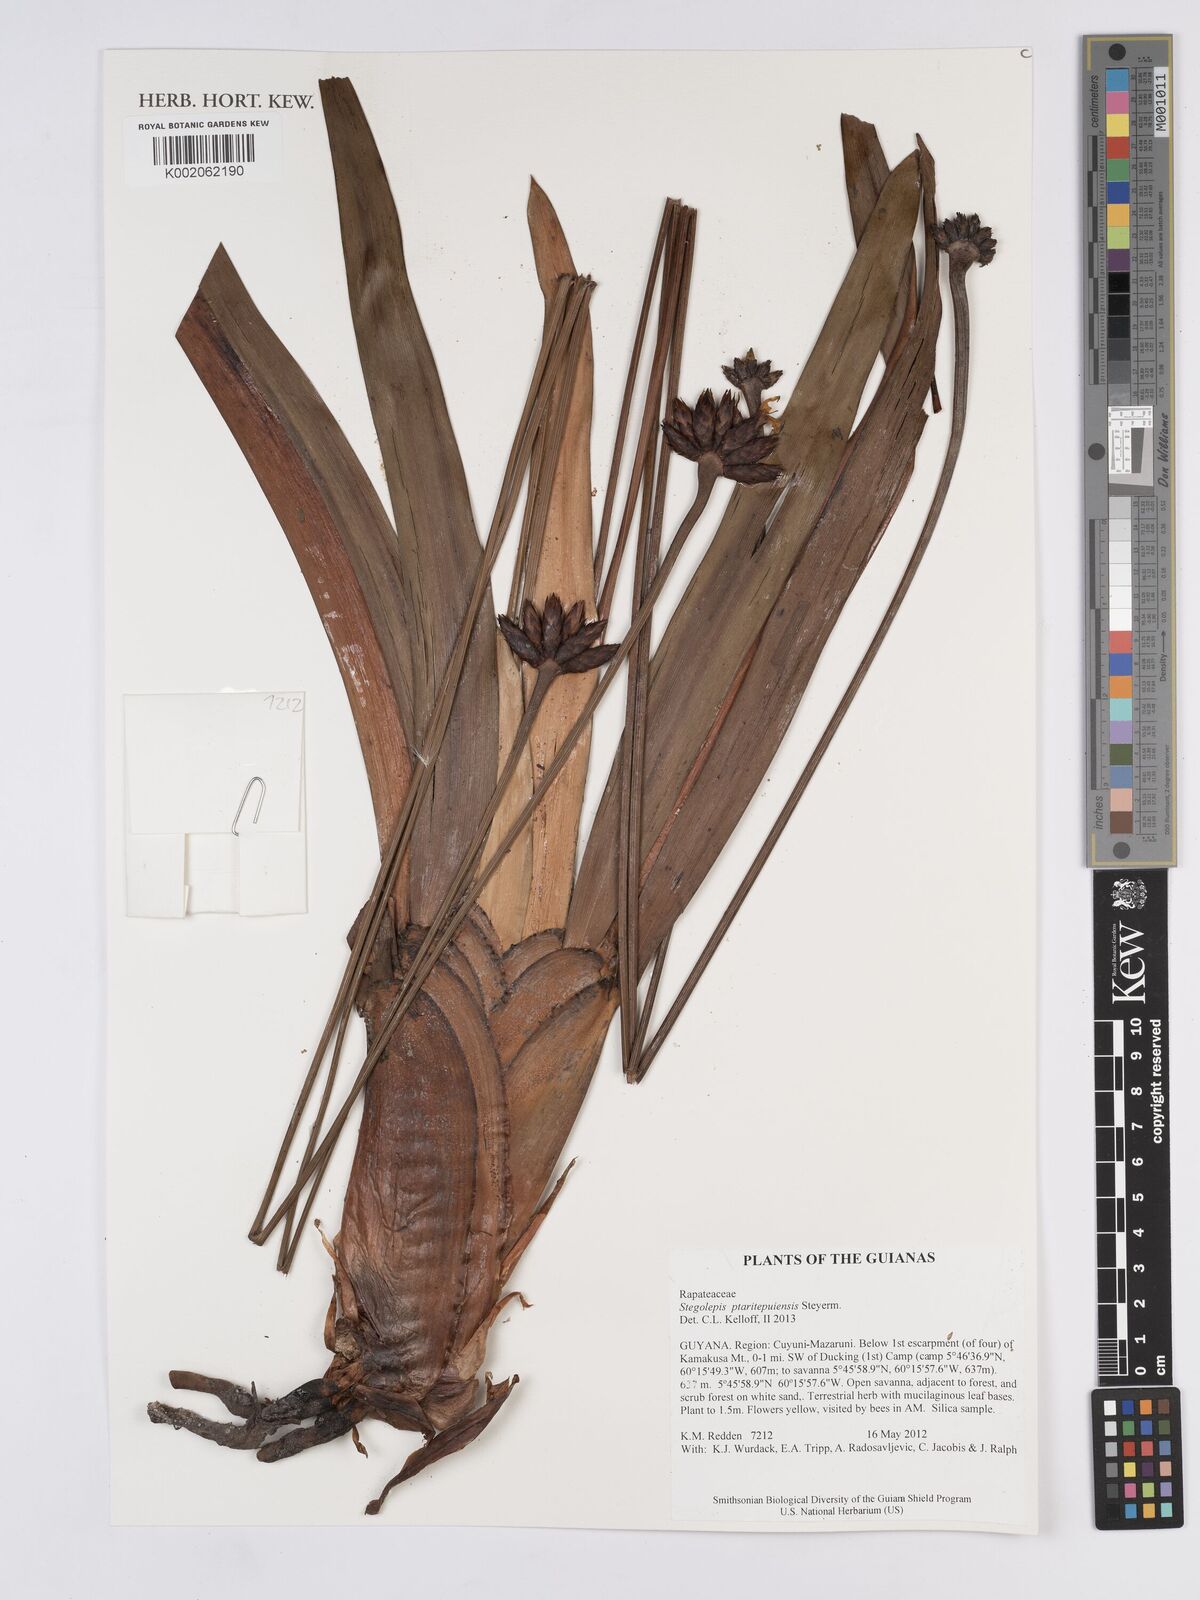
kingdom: Plantae
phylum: Tracheophyta
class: Liliopsida
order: Poales
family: Rapateaceae
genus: Stegolepis
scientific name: Stegolepis ptaritepuiensis
